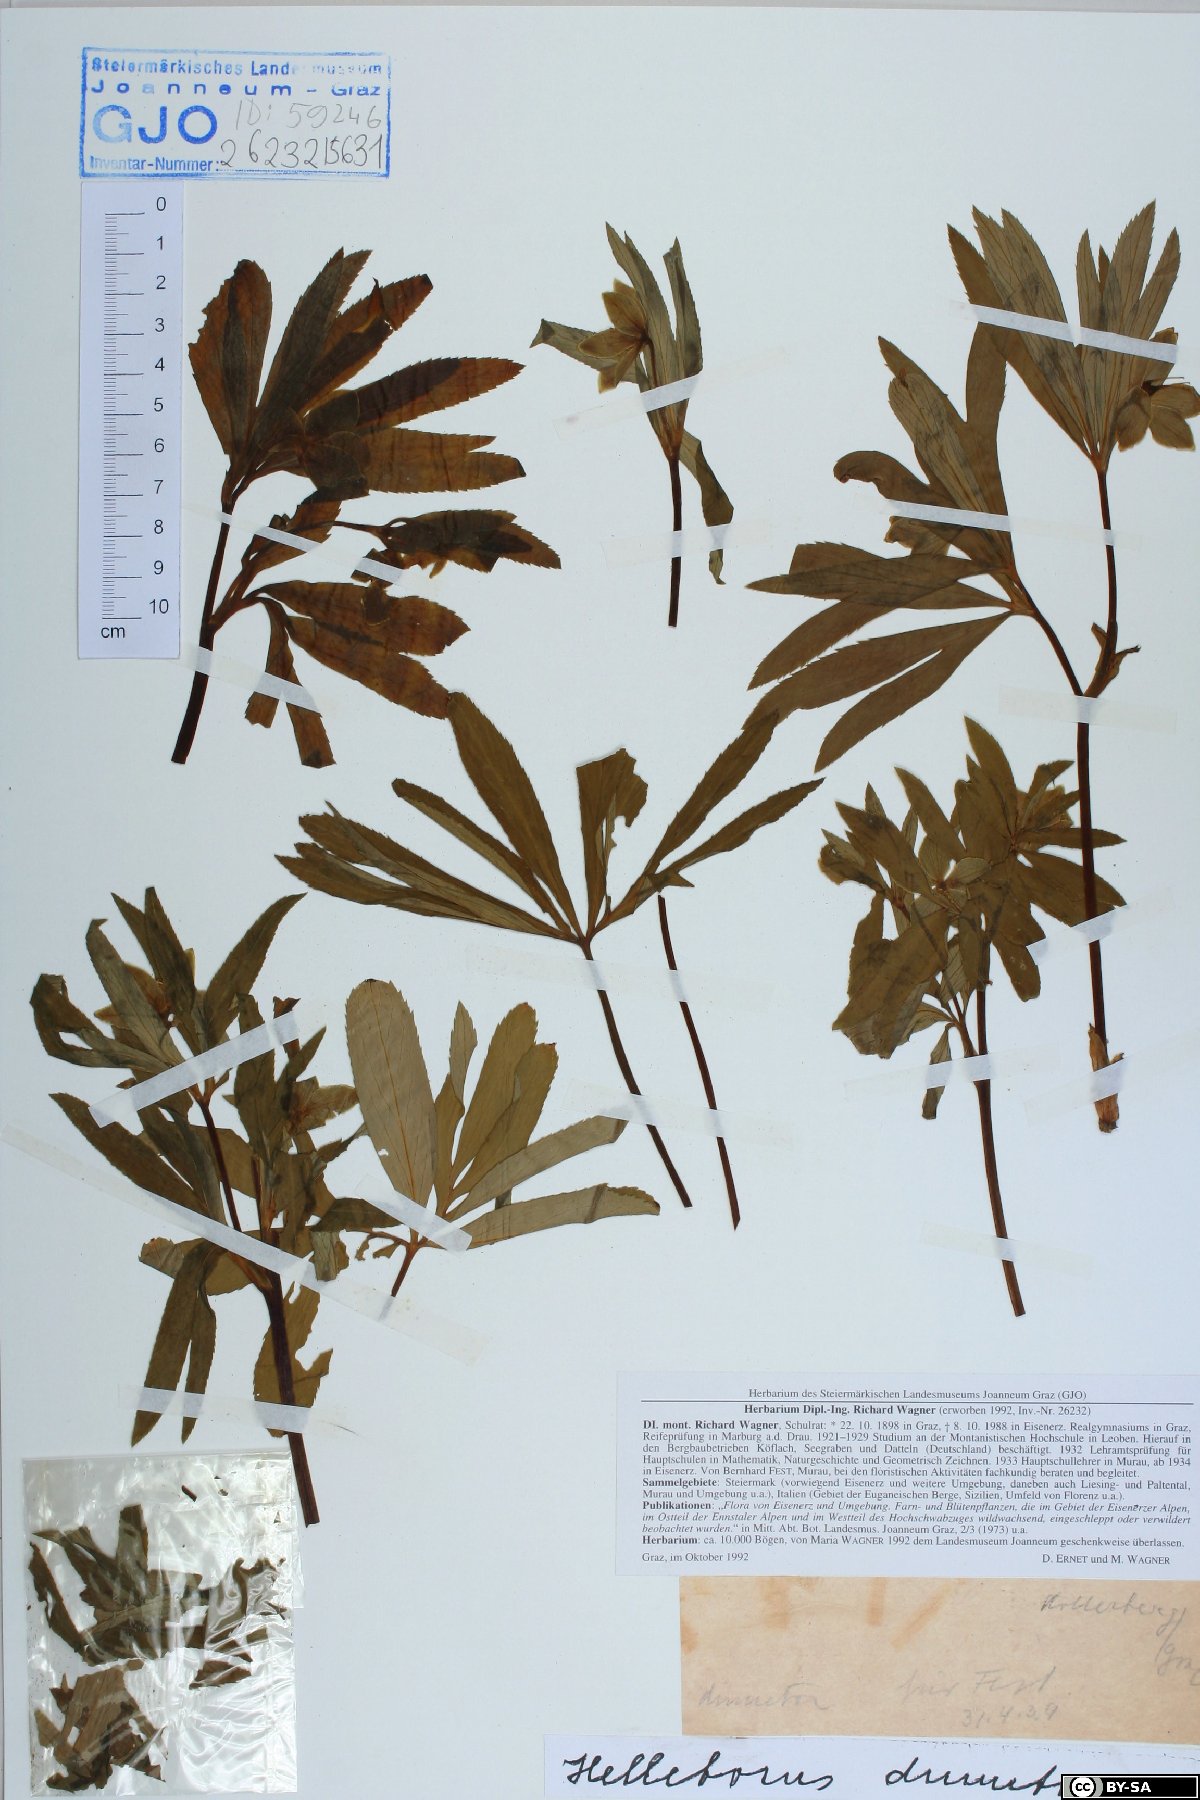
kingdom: Plantae
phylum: Tracheophyta
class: Magnoliopsida
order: Ranunculales
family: Ranunculaceae
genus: Helleborus
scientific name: Helleborus dumetorum
